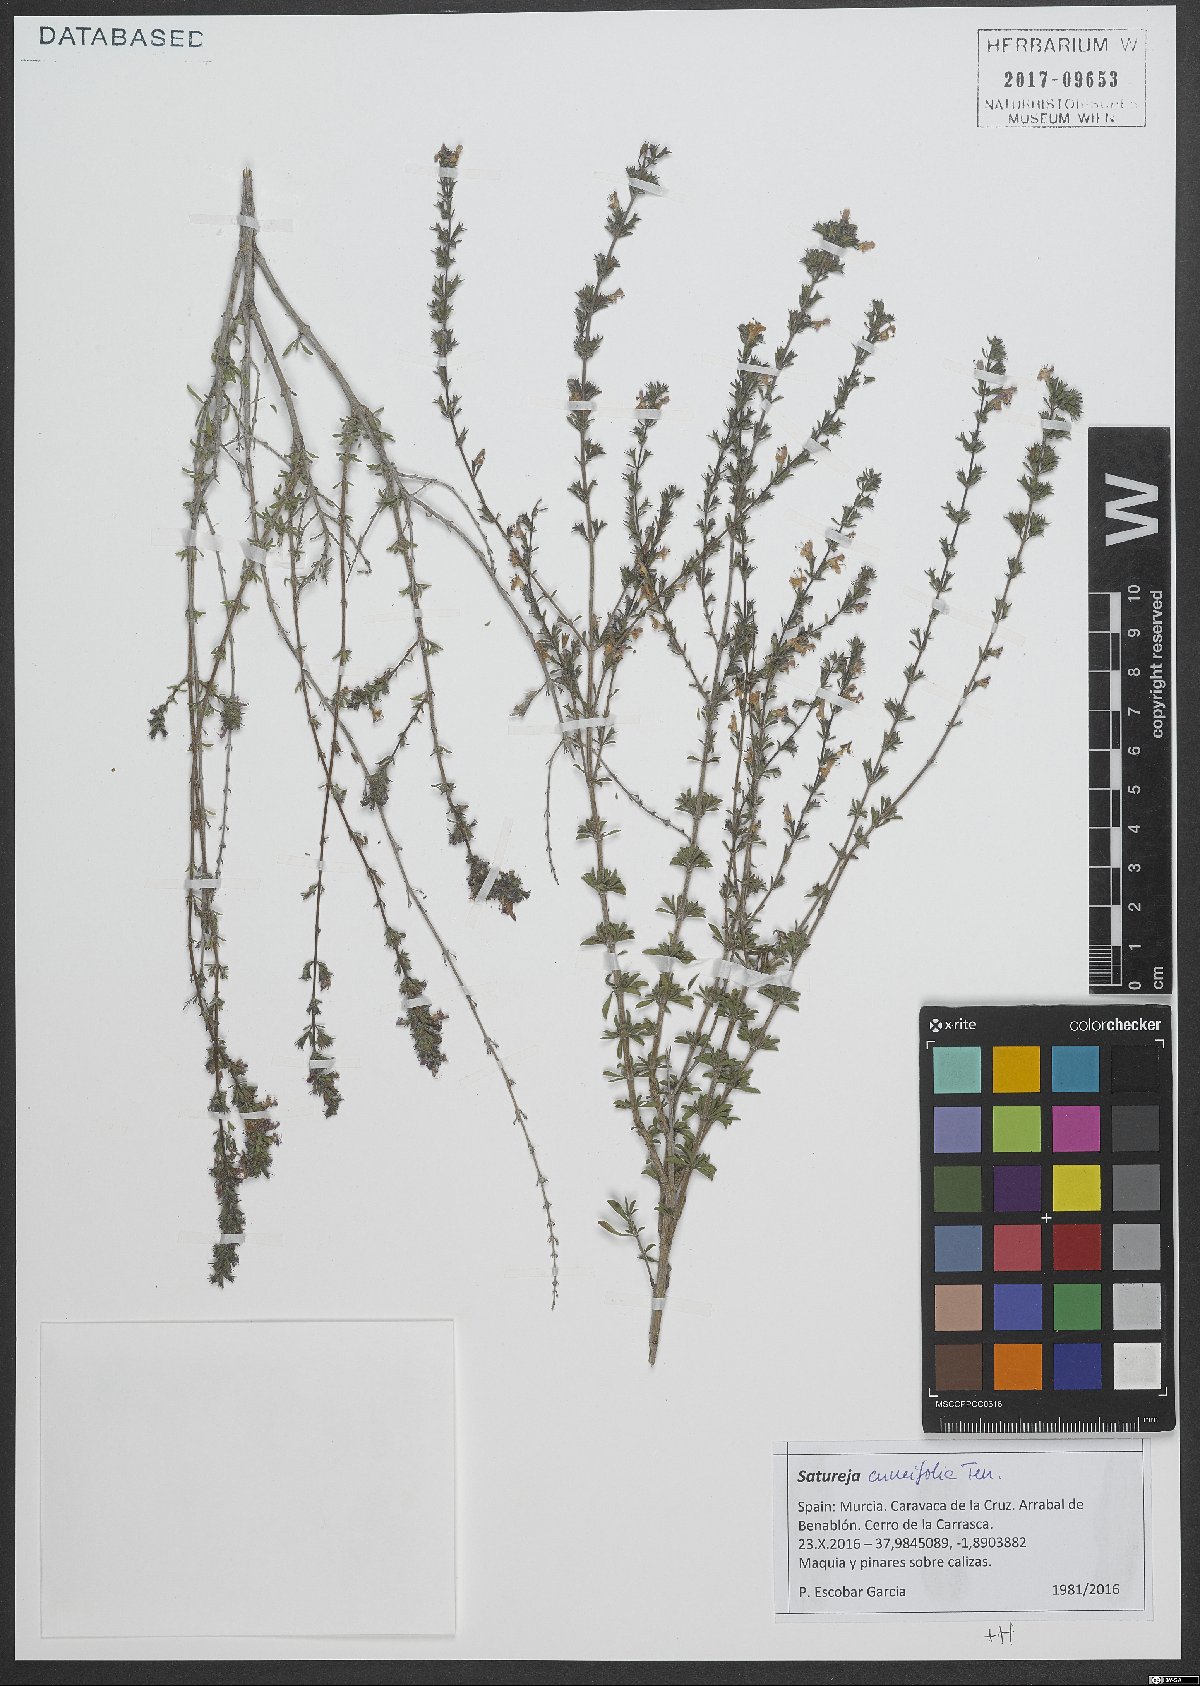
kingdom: Plantae
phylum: Tracheophyta
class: Magnoliopsida
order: Lamiales
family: Lamiaceae
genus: Satureja
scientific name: Satureja cuneifolia
